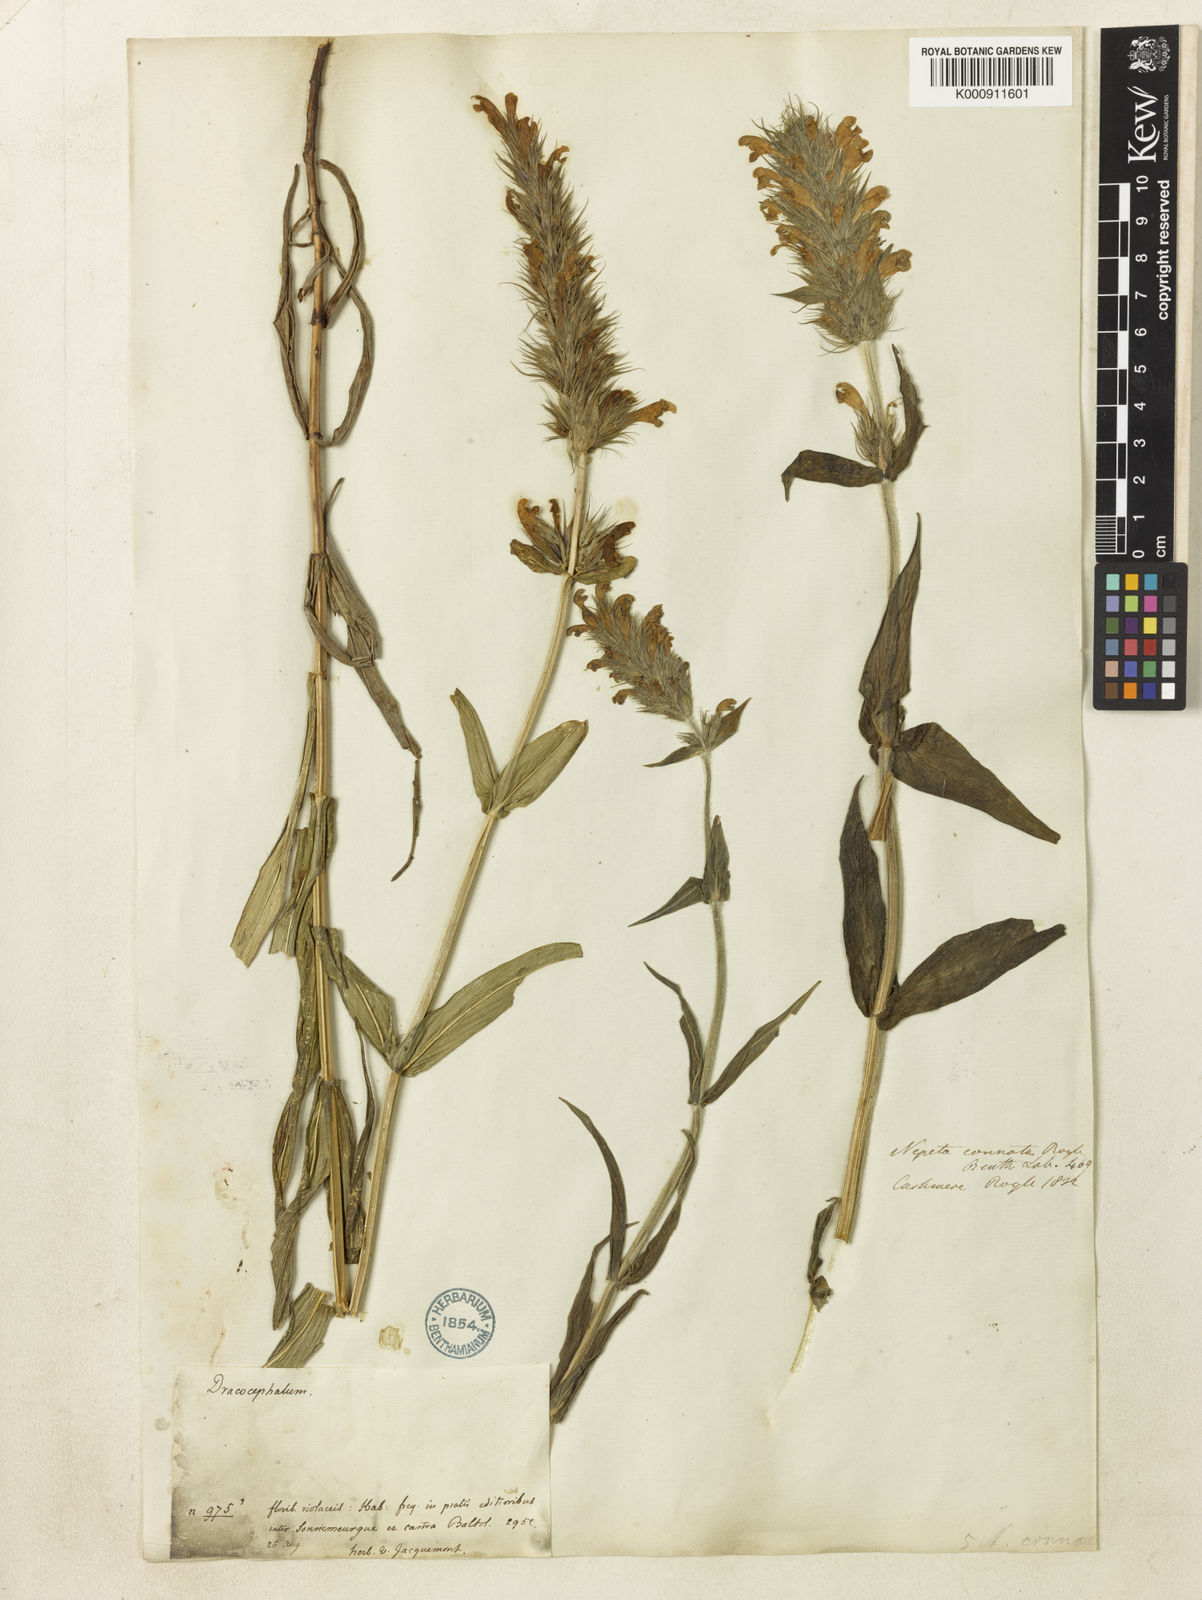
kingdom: Plantae
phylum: Tracheophyta
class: Magnoliopsida
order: Lamiales
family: Lamiaceae
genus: Nepeta
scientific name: Nepeta connata
